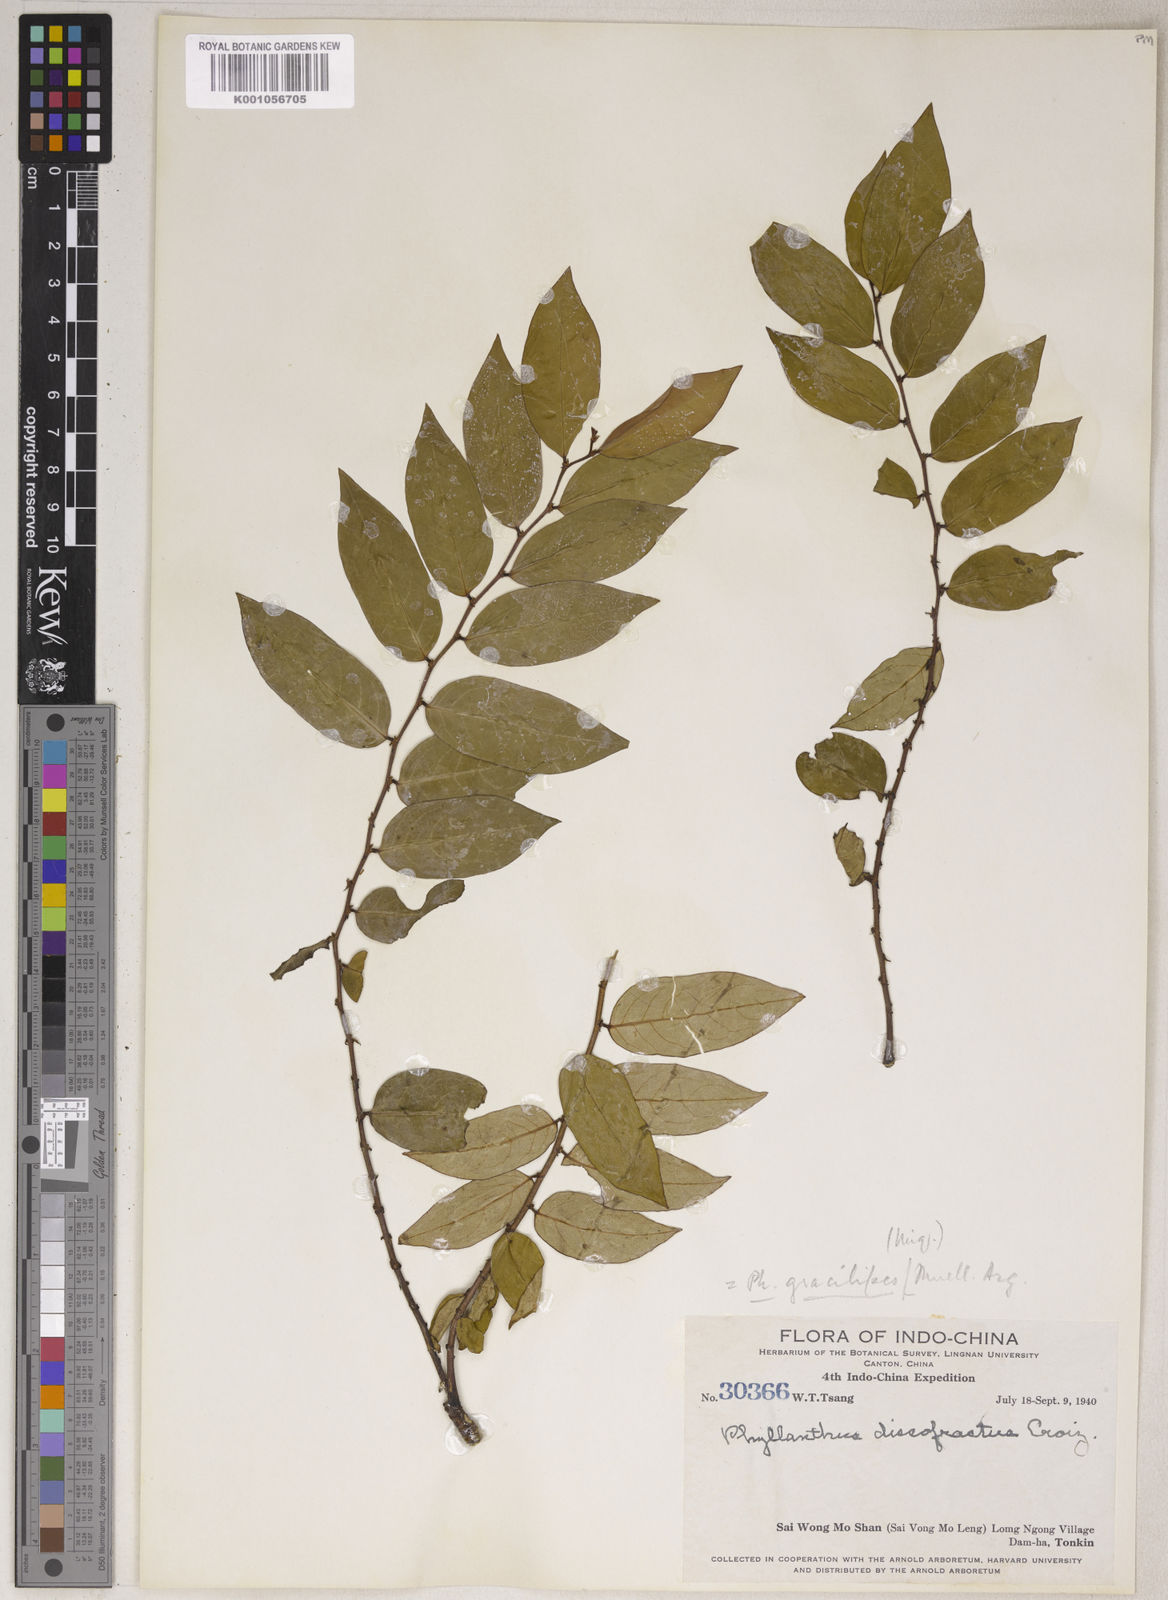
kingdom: Plantae
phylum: Tracheophyta
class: Magnoliopsida
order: Malpighiales
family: Phyllanthaceae
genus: Phyllanthus
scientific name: Phyllanthus
